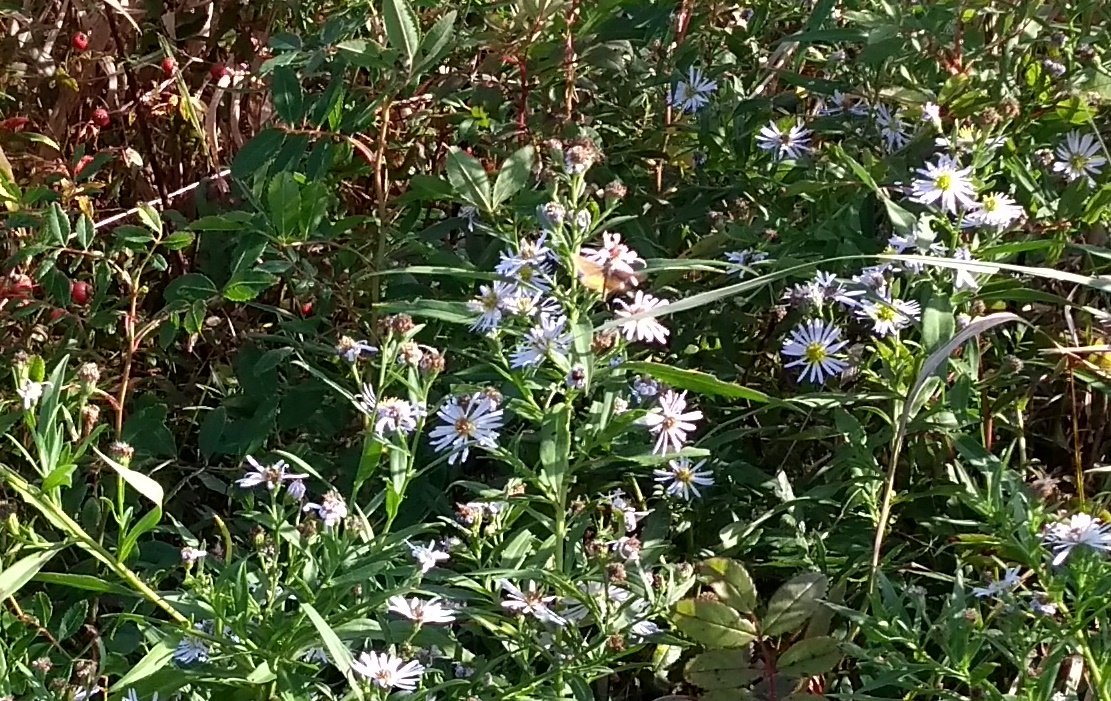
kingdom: Animalia
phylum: Arthropoda
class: Insecta
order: Lepidoptera
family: Hesperiidae
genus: Ancyloxypha
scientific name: Ancyloxypha numitor
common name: Least Skipper
